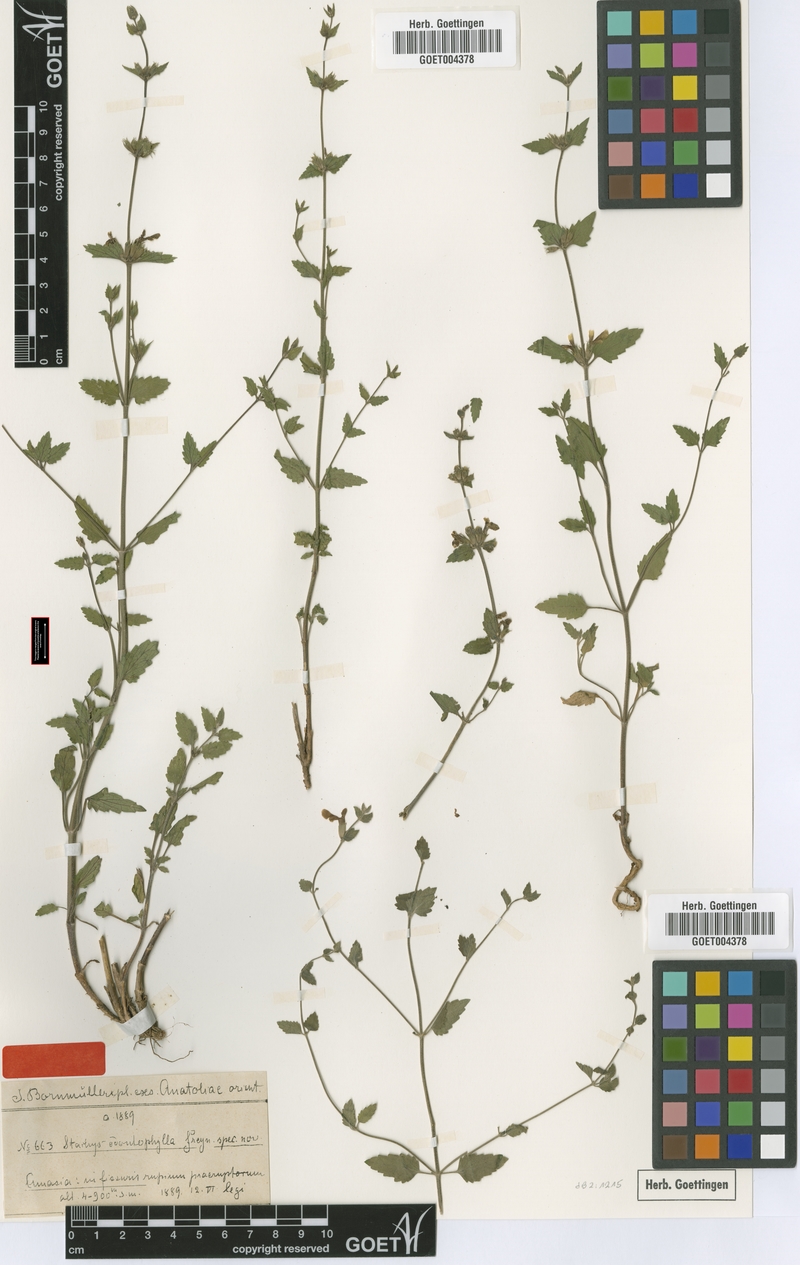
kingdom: Plantae
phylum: Tracheophyta
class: Magnoliopsida
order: Lamiales
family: Lamiaceae
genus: Stachys
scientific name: Stachys viscosa
